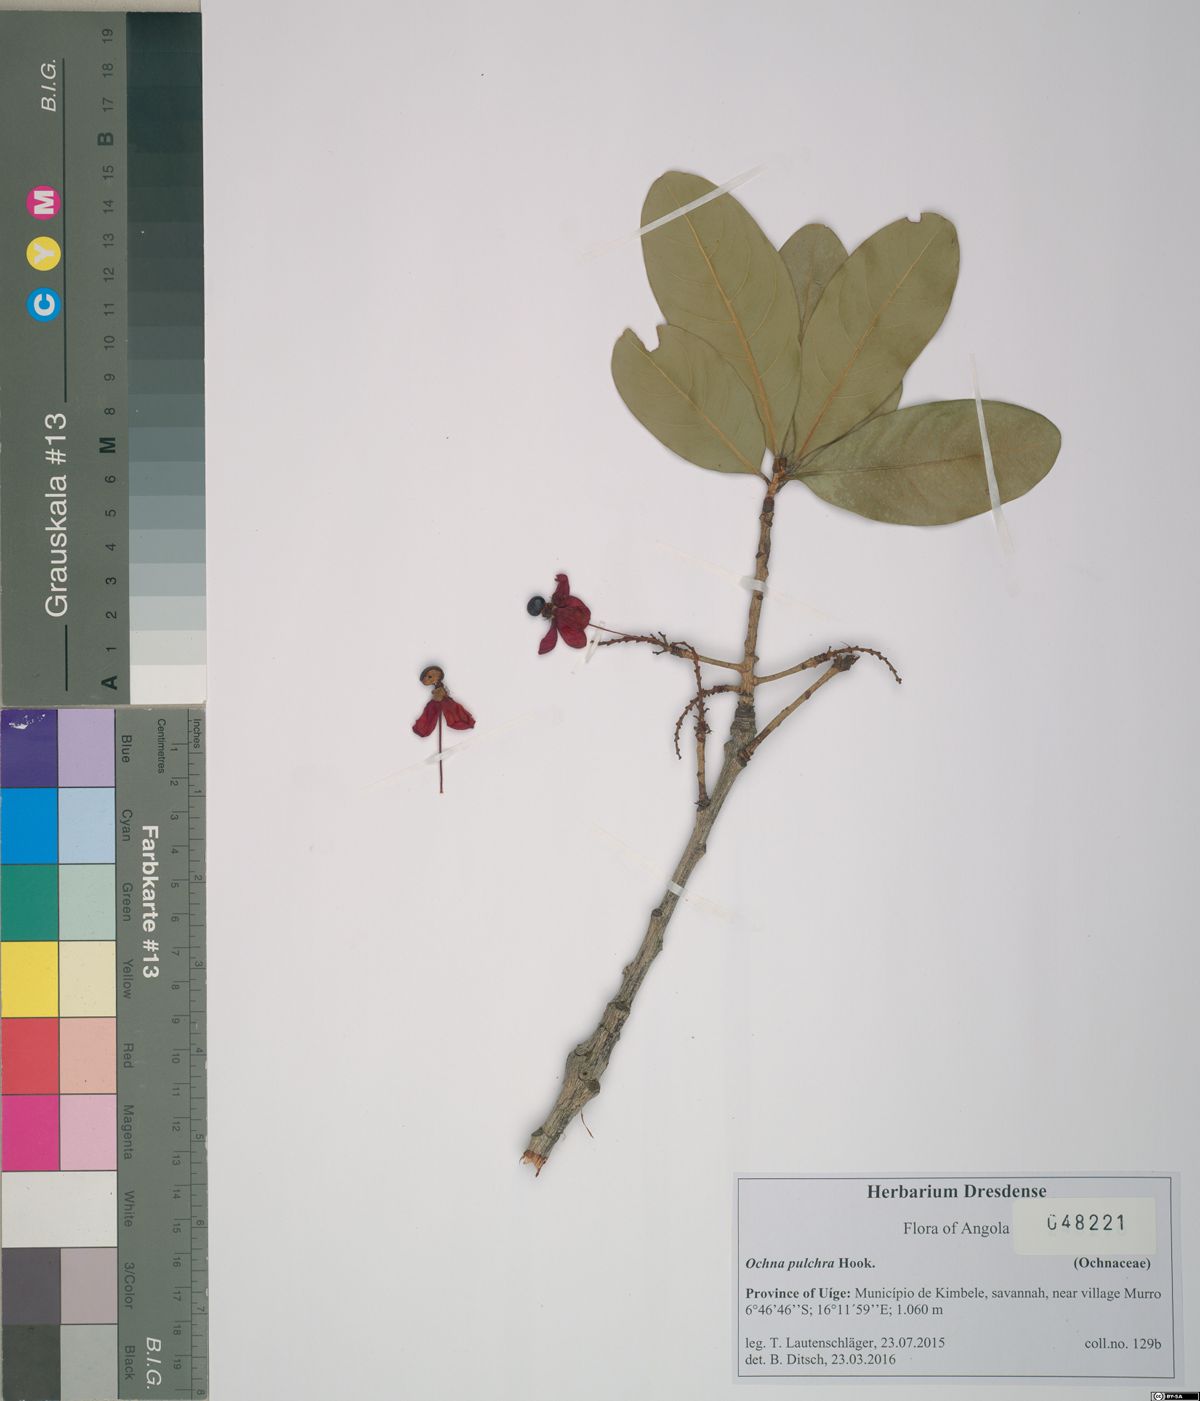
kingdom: Plantae
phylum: Tracheophyta
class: Magnoliopsida
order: Malpighiales
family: Ochnaceae
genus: Ochna
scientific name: Ochna pulchra
